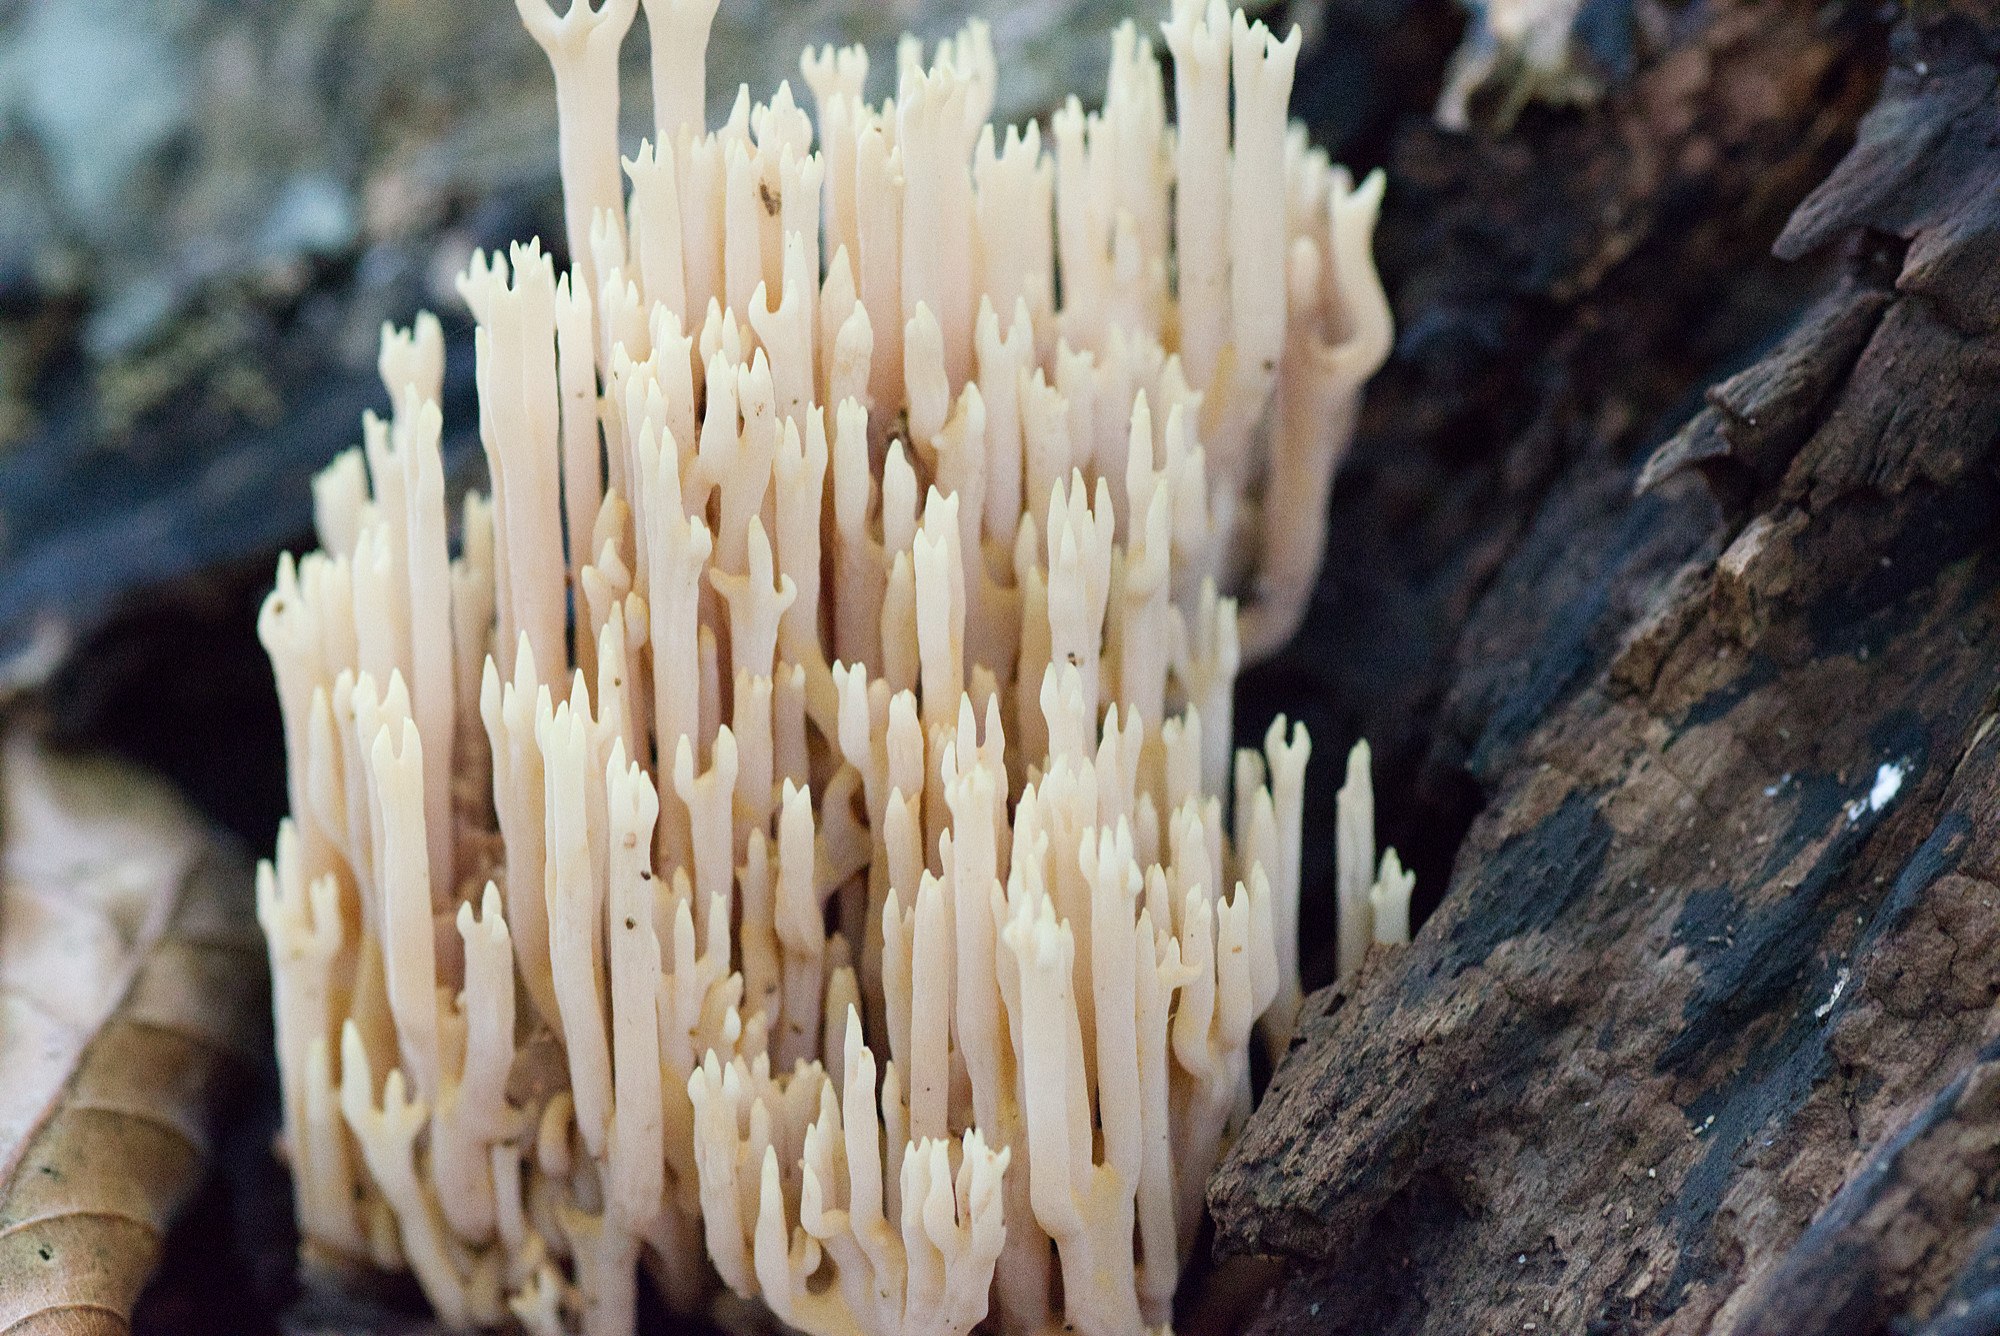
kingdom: Fungi
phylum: Basidiomycota
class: Agaricomycetes
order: Gomphales
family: Gomphaceae
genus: Ramaria
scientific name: Ramaria stricta
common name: rank koralsvamp
